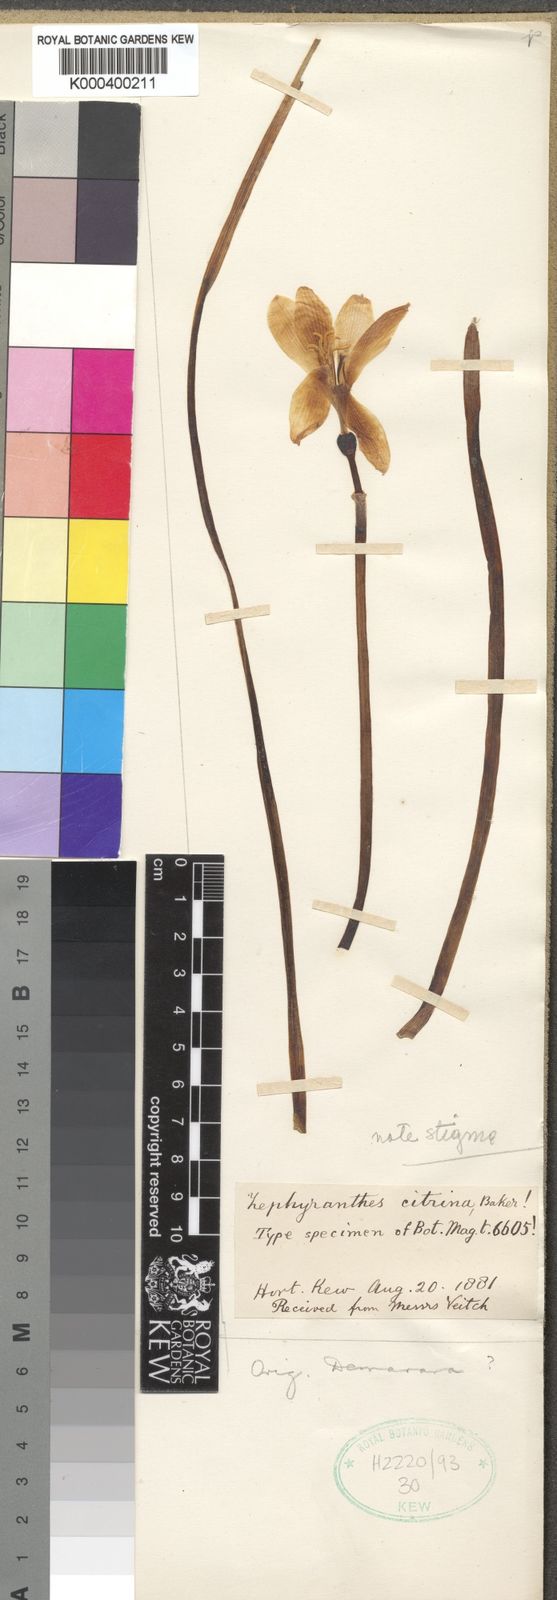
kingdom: Plantae
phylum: Tracheophyta
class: Liliopsida
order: Asparagales
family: Amaryllidaceae
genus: Zephyranthes
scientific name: Zephyranthes citrina
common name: Citron zephyrlily
